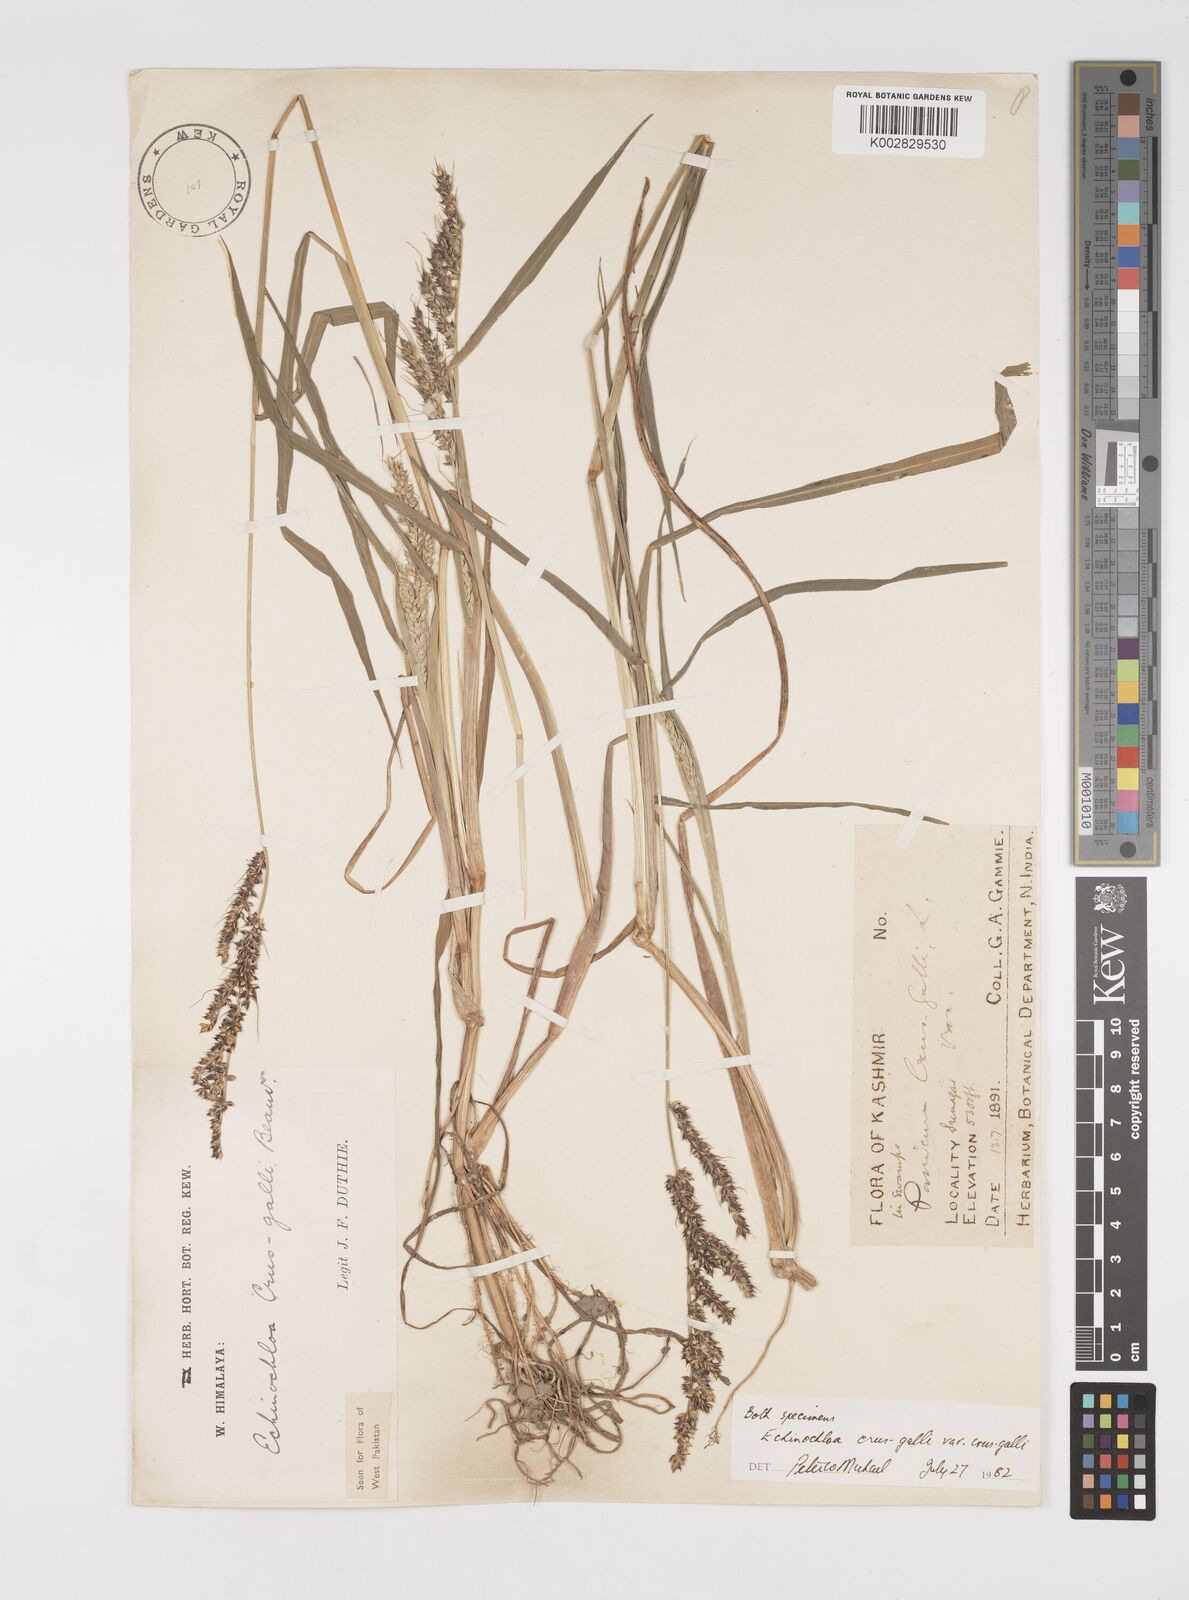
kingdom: Plantae
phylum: Tracheophyta
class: Liliopsida
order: Poales
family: Poaceae
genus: Echinochloa
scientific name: Echinochloa crus-galli
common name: Cockspur
